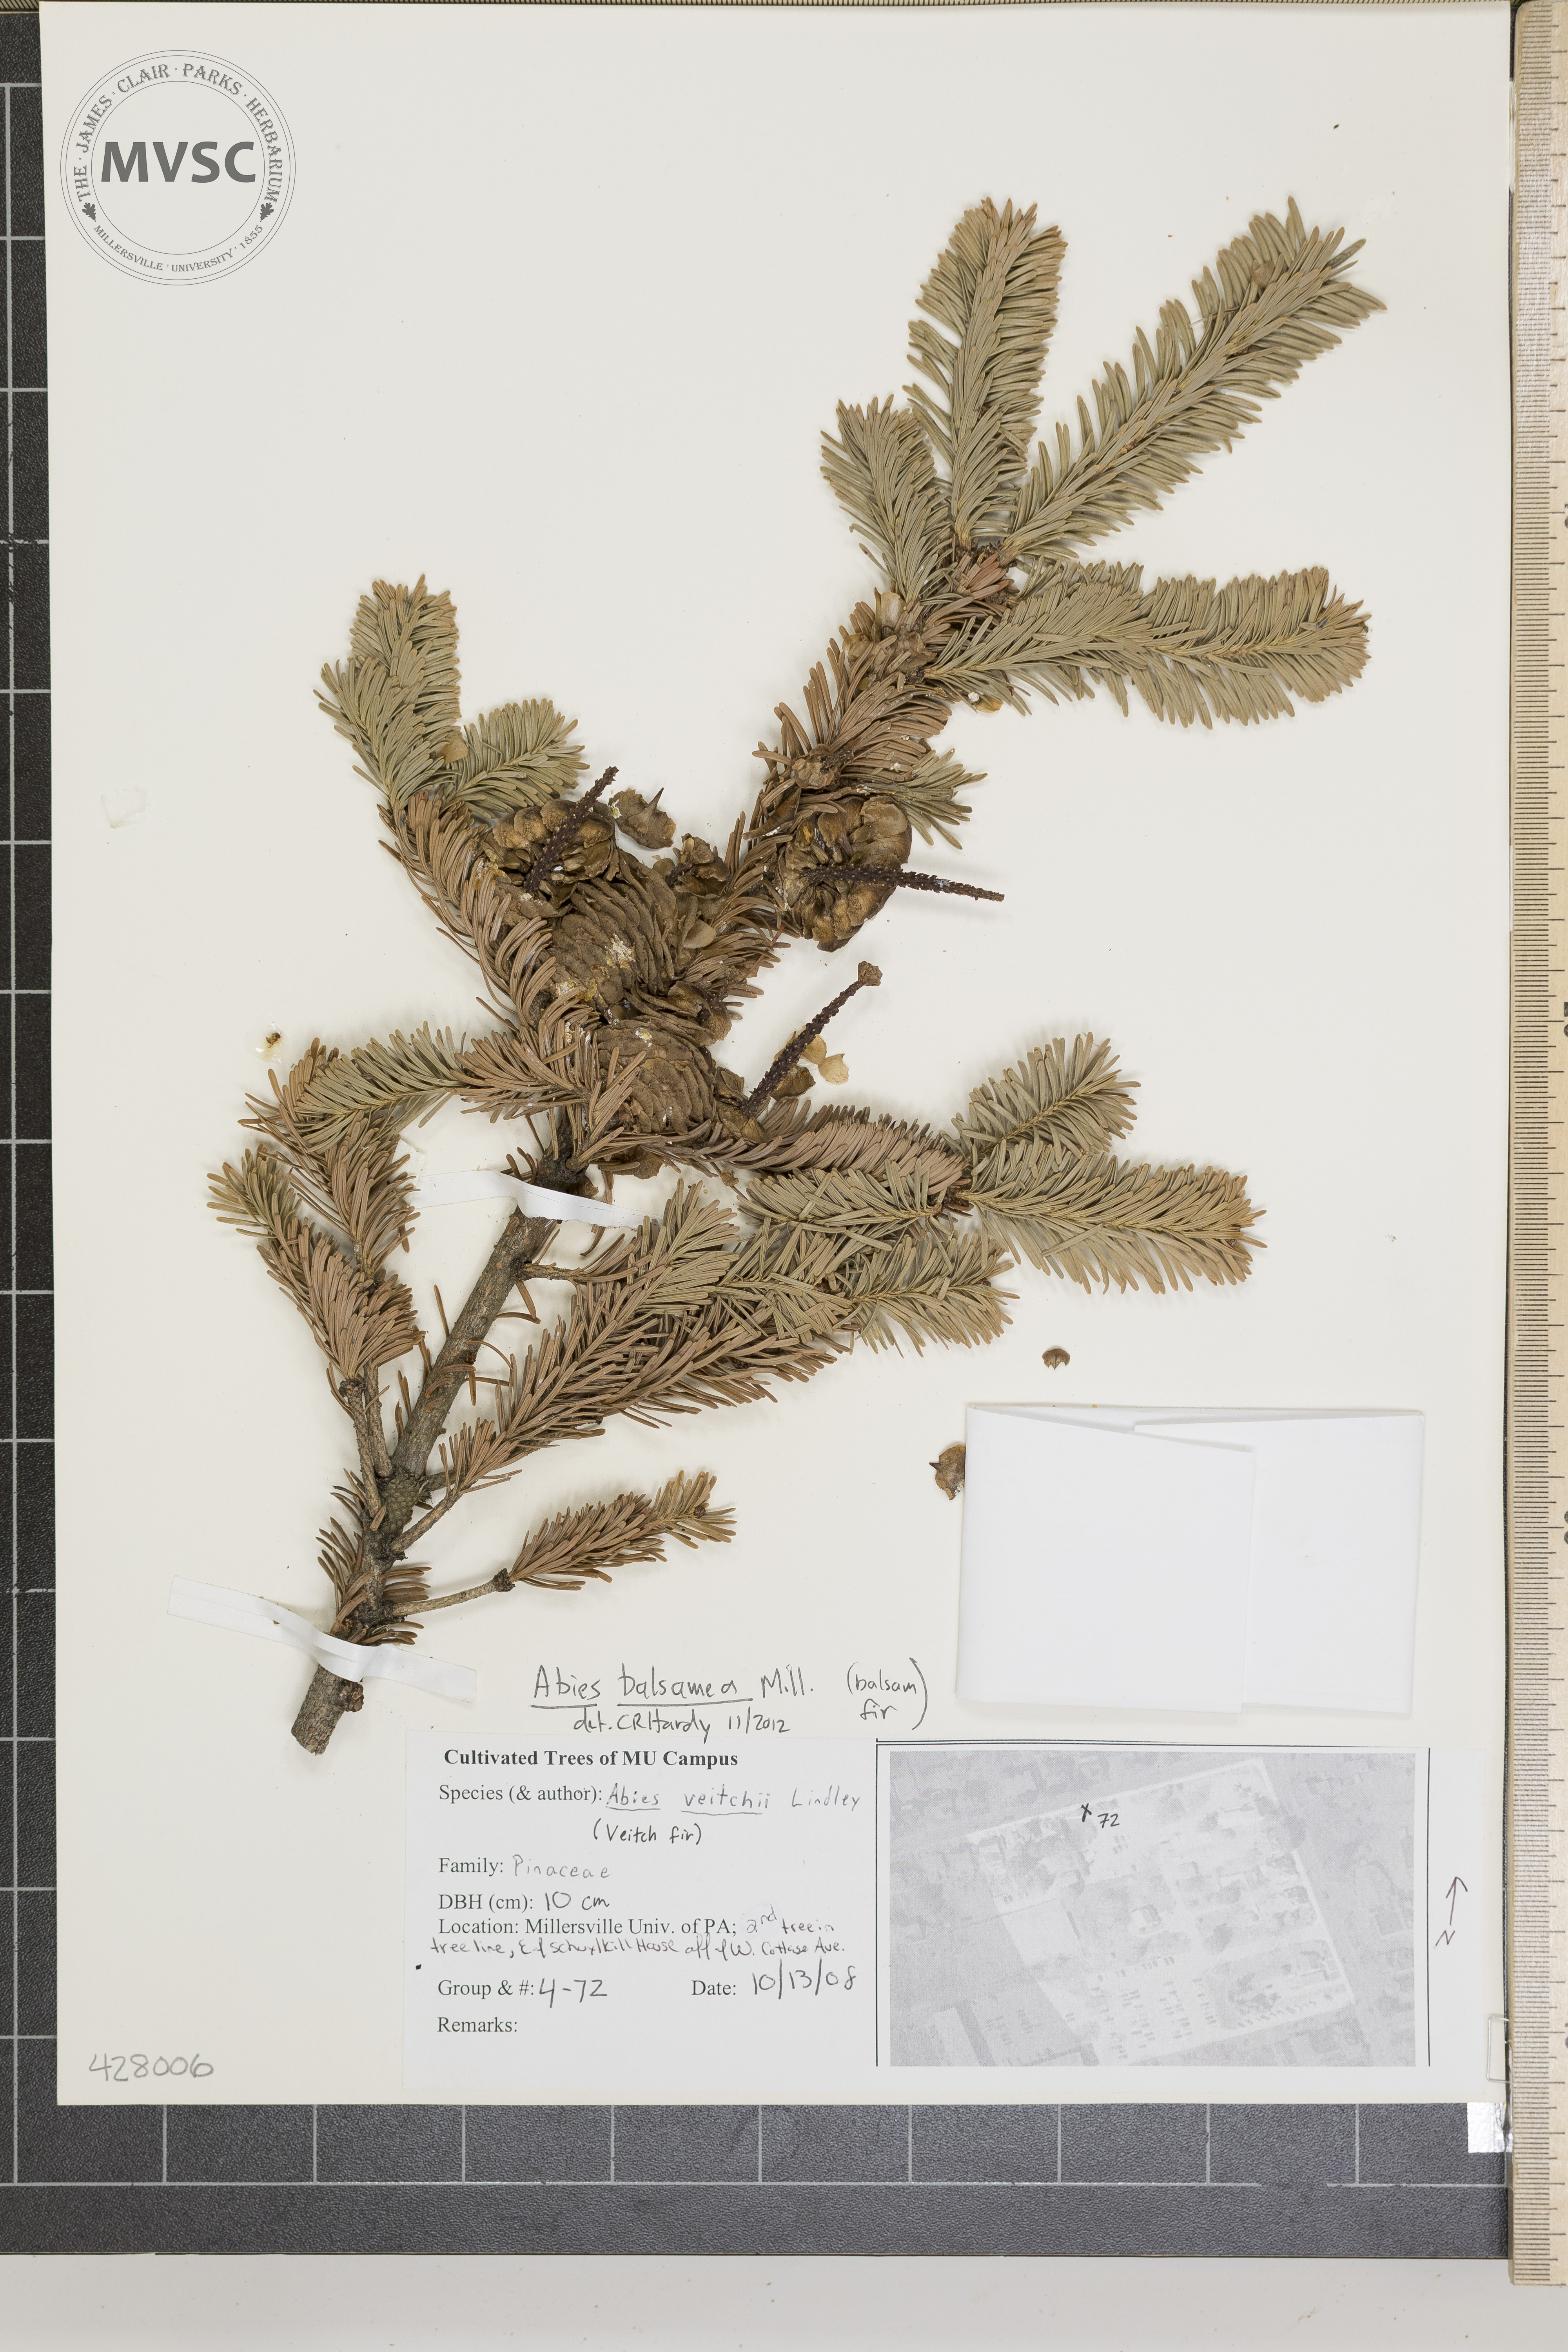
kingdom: Plantae
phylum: Tracheophyta
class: Pinopsida
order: Pinales
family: Pinaceae
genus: Abies
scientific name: Abies balsamea
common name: balsam fir
